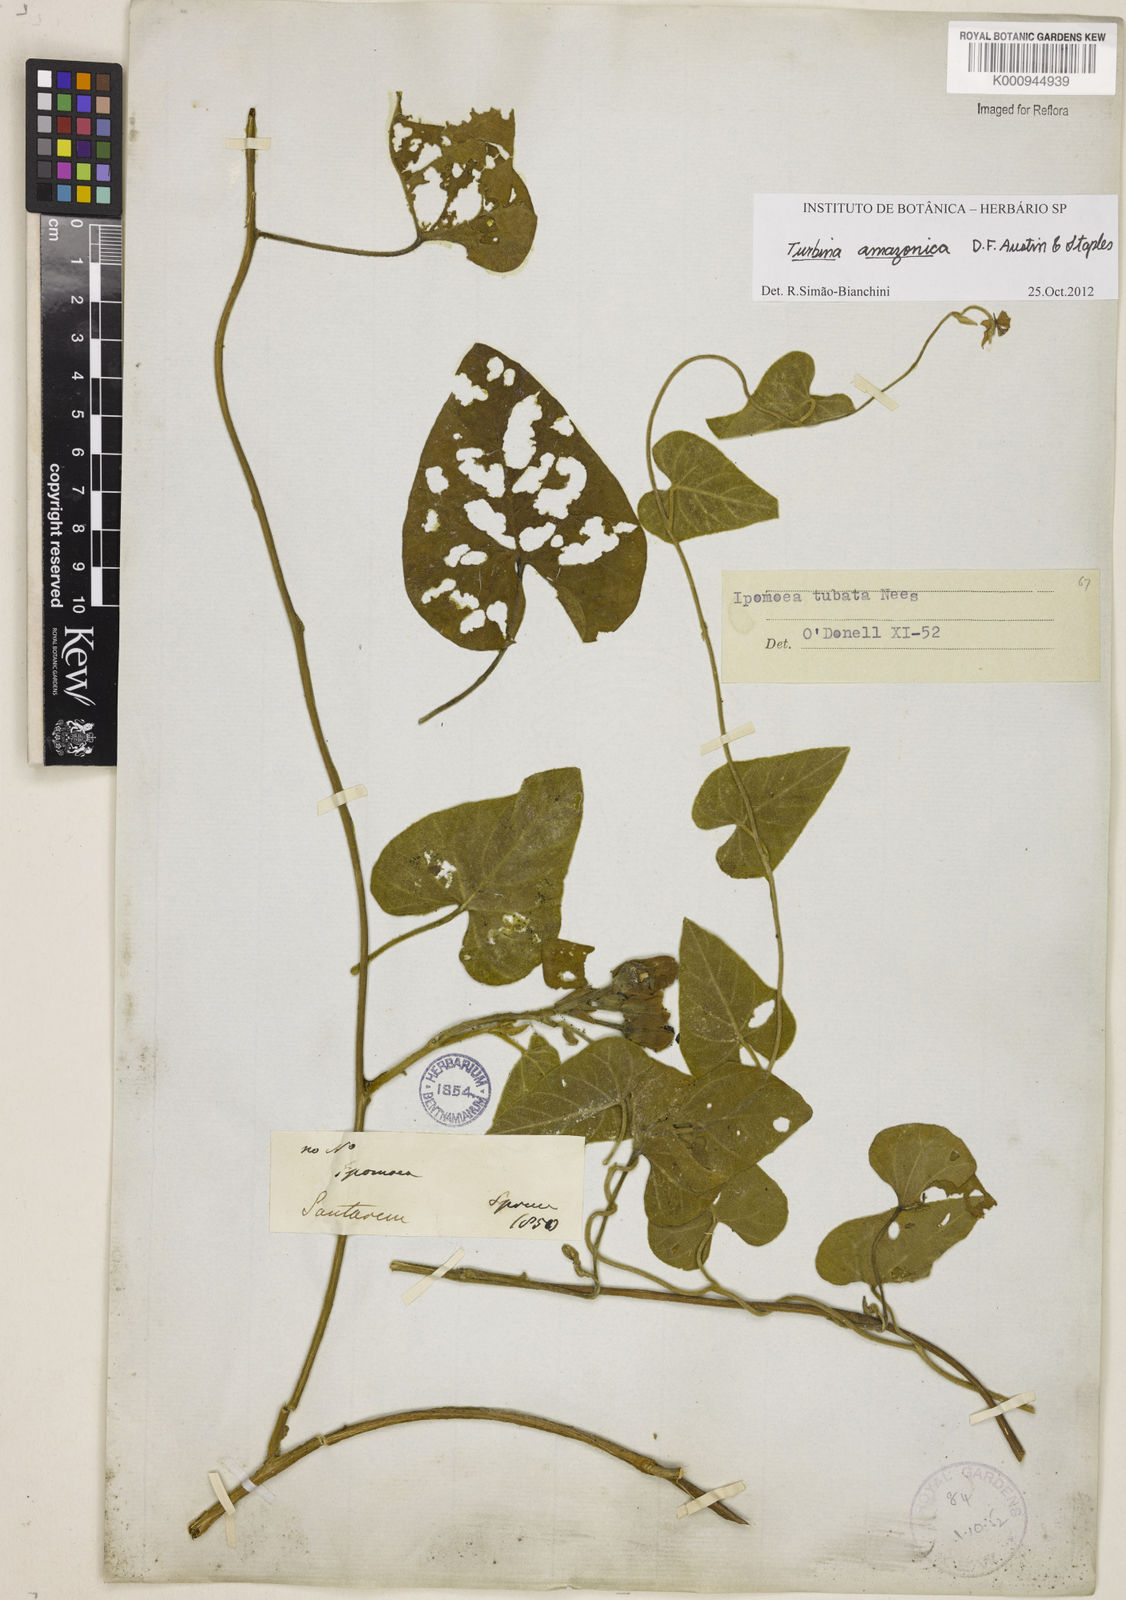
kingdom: Plantae
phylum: Tracheophyta
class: Magnoliopsida
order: Solanales
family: Convolvulaceae
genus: Ipomoea
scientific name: Ipomoea amazonica
